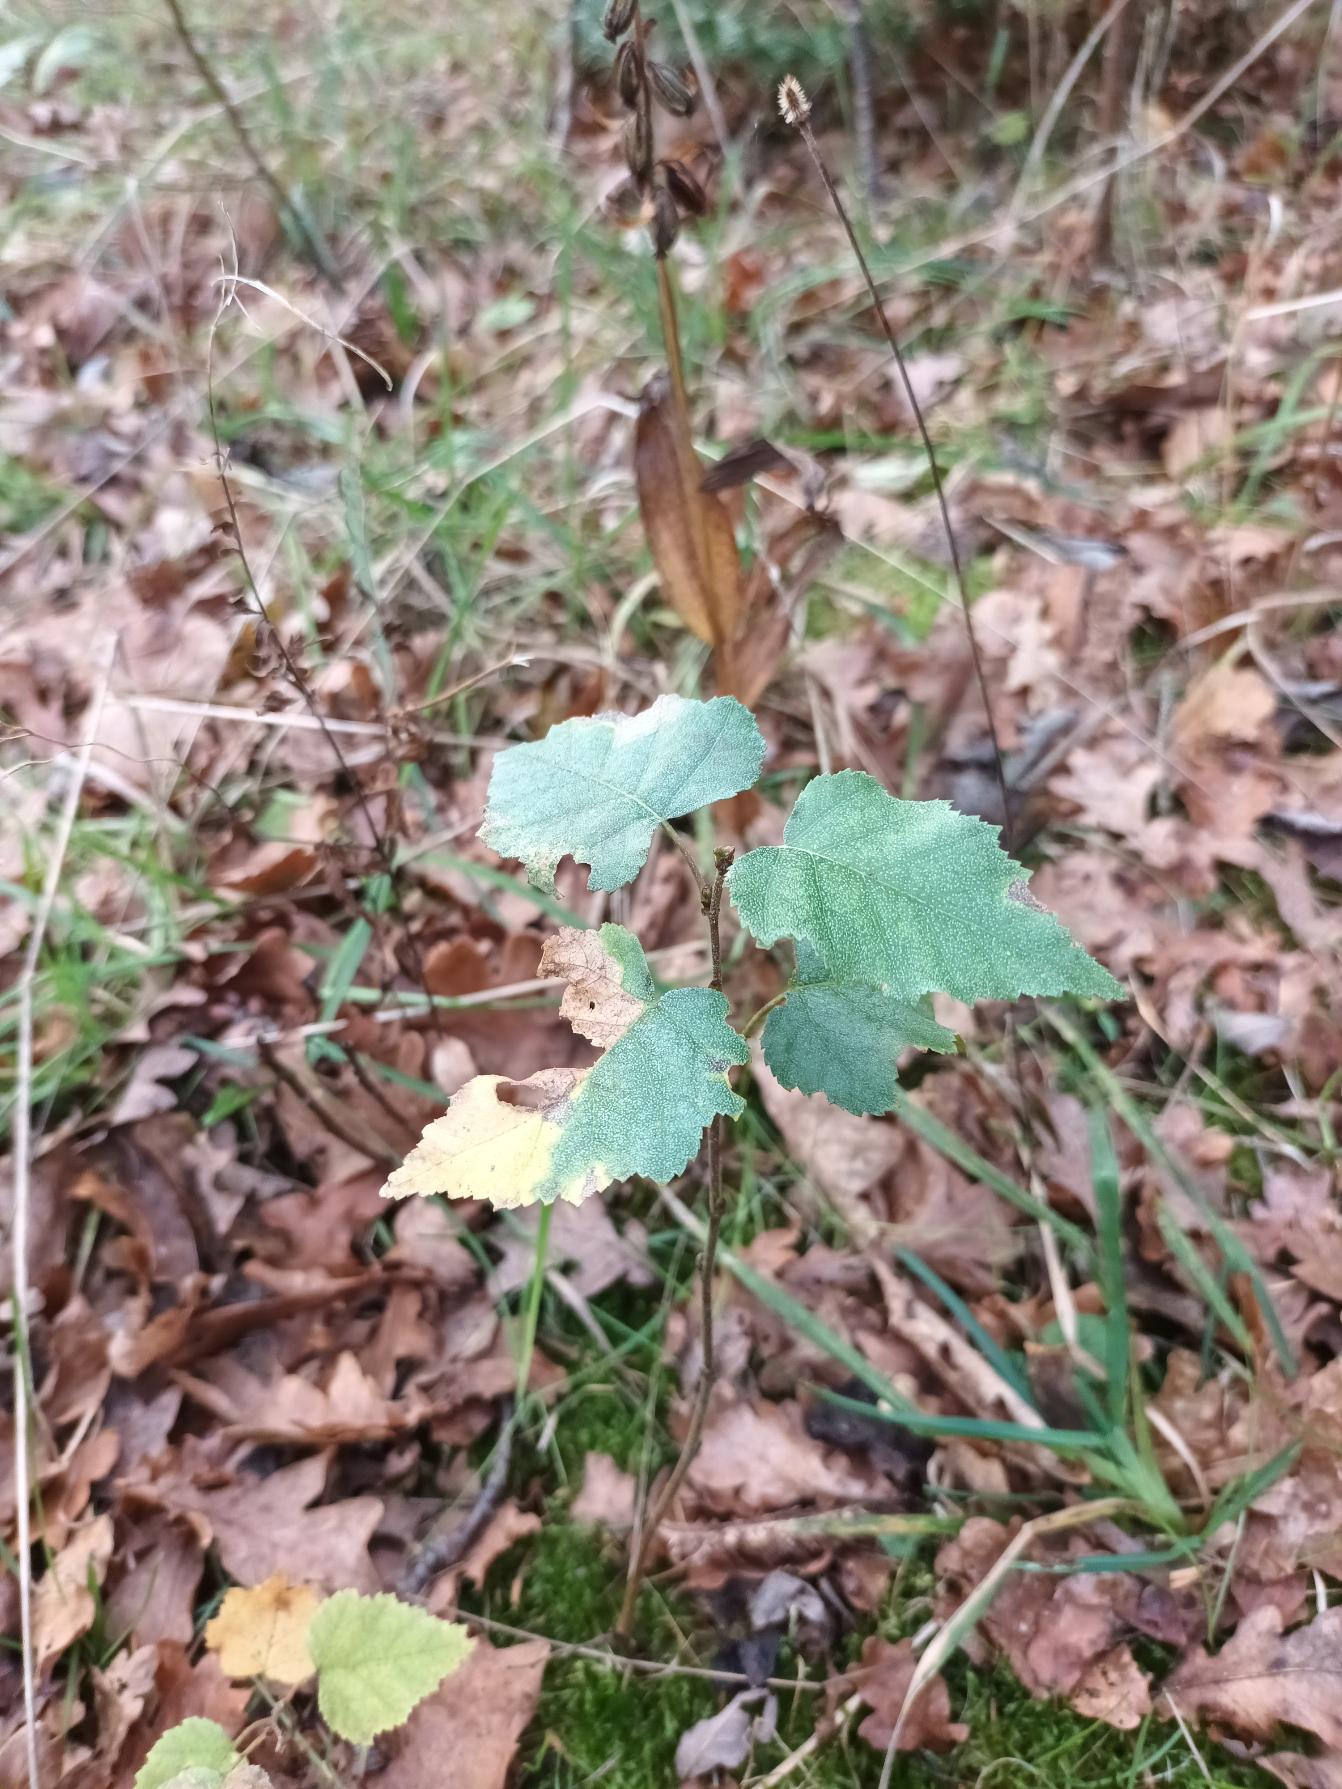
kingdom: Plantae
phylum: Tracheophyta
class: Magnoliopsida
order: Fagales
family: Betulaceae
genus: Betula
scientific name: Betula pendula
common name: Vorte-birk
